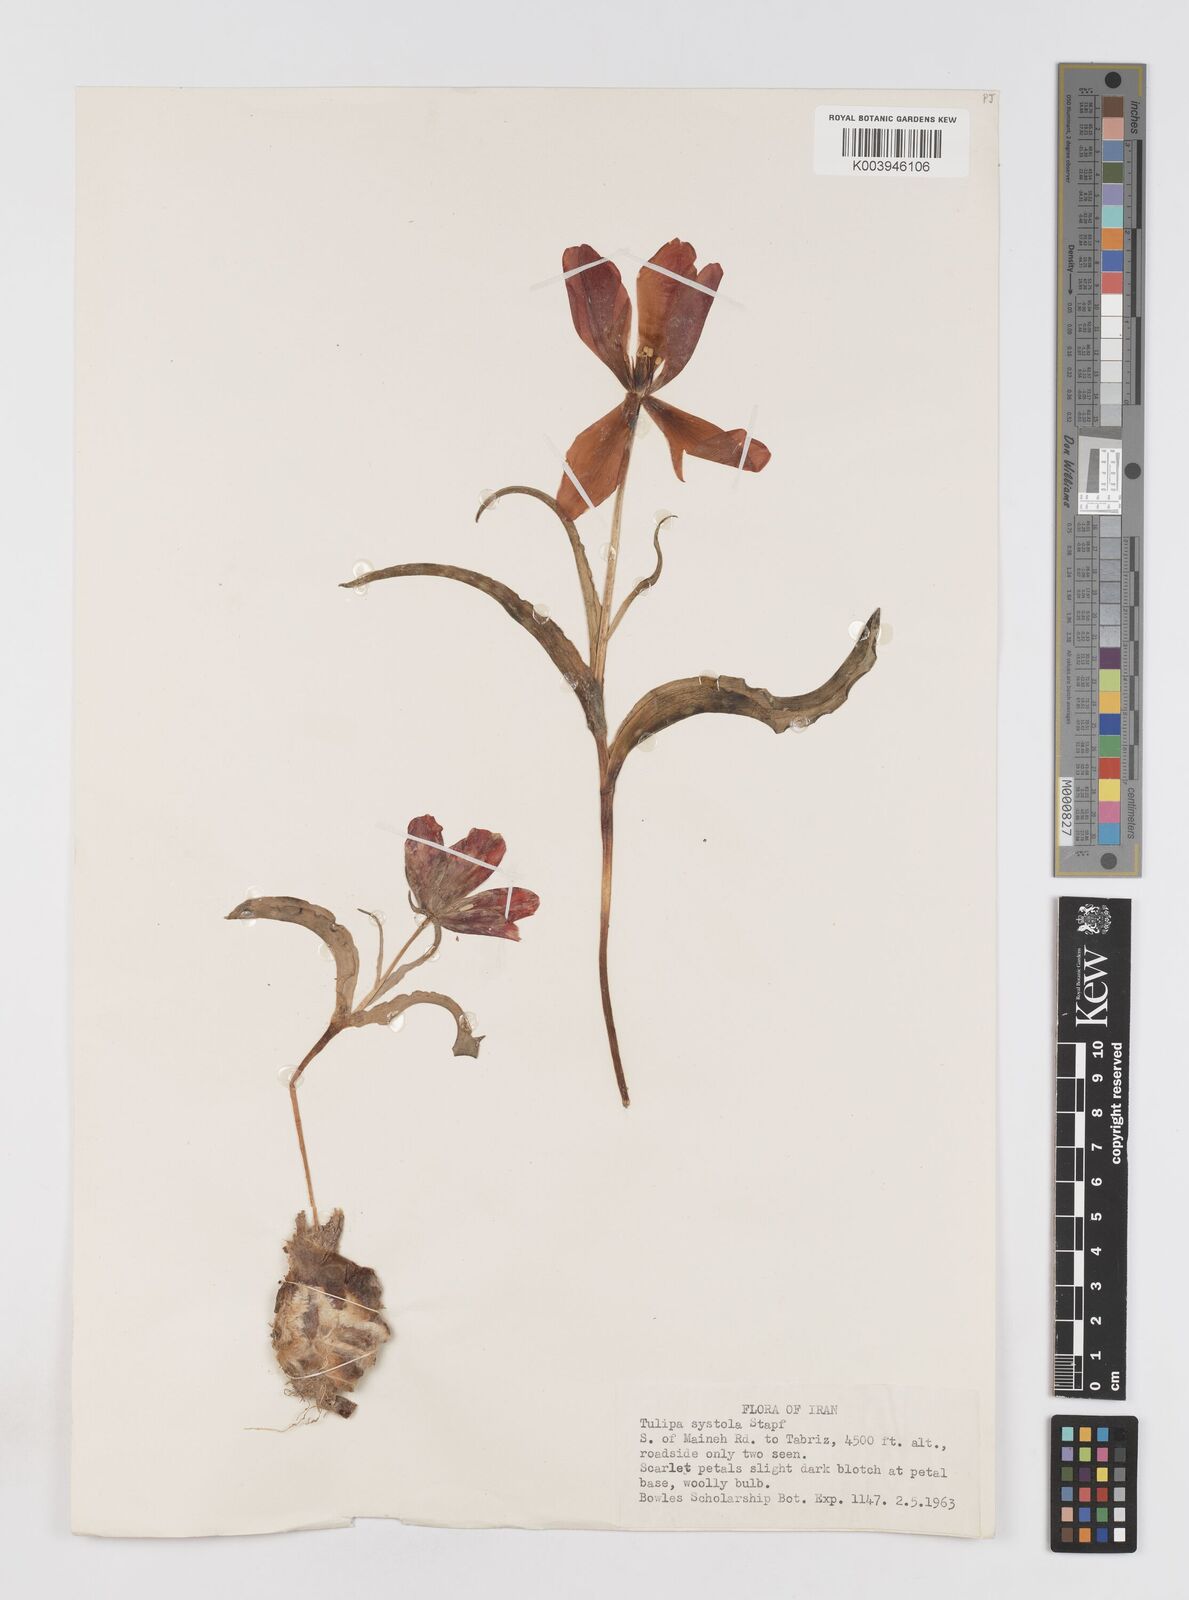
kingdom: Plantae
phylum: Tracheophyta
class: Liliopsida
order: Liliales
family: Liliaceae
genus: Tulipa
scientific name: Tulipa systola
